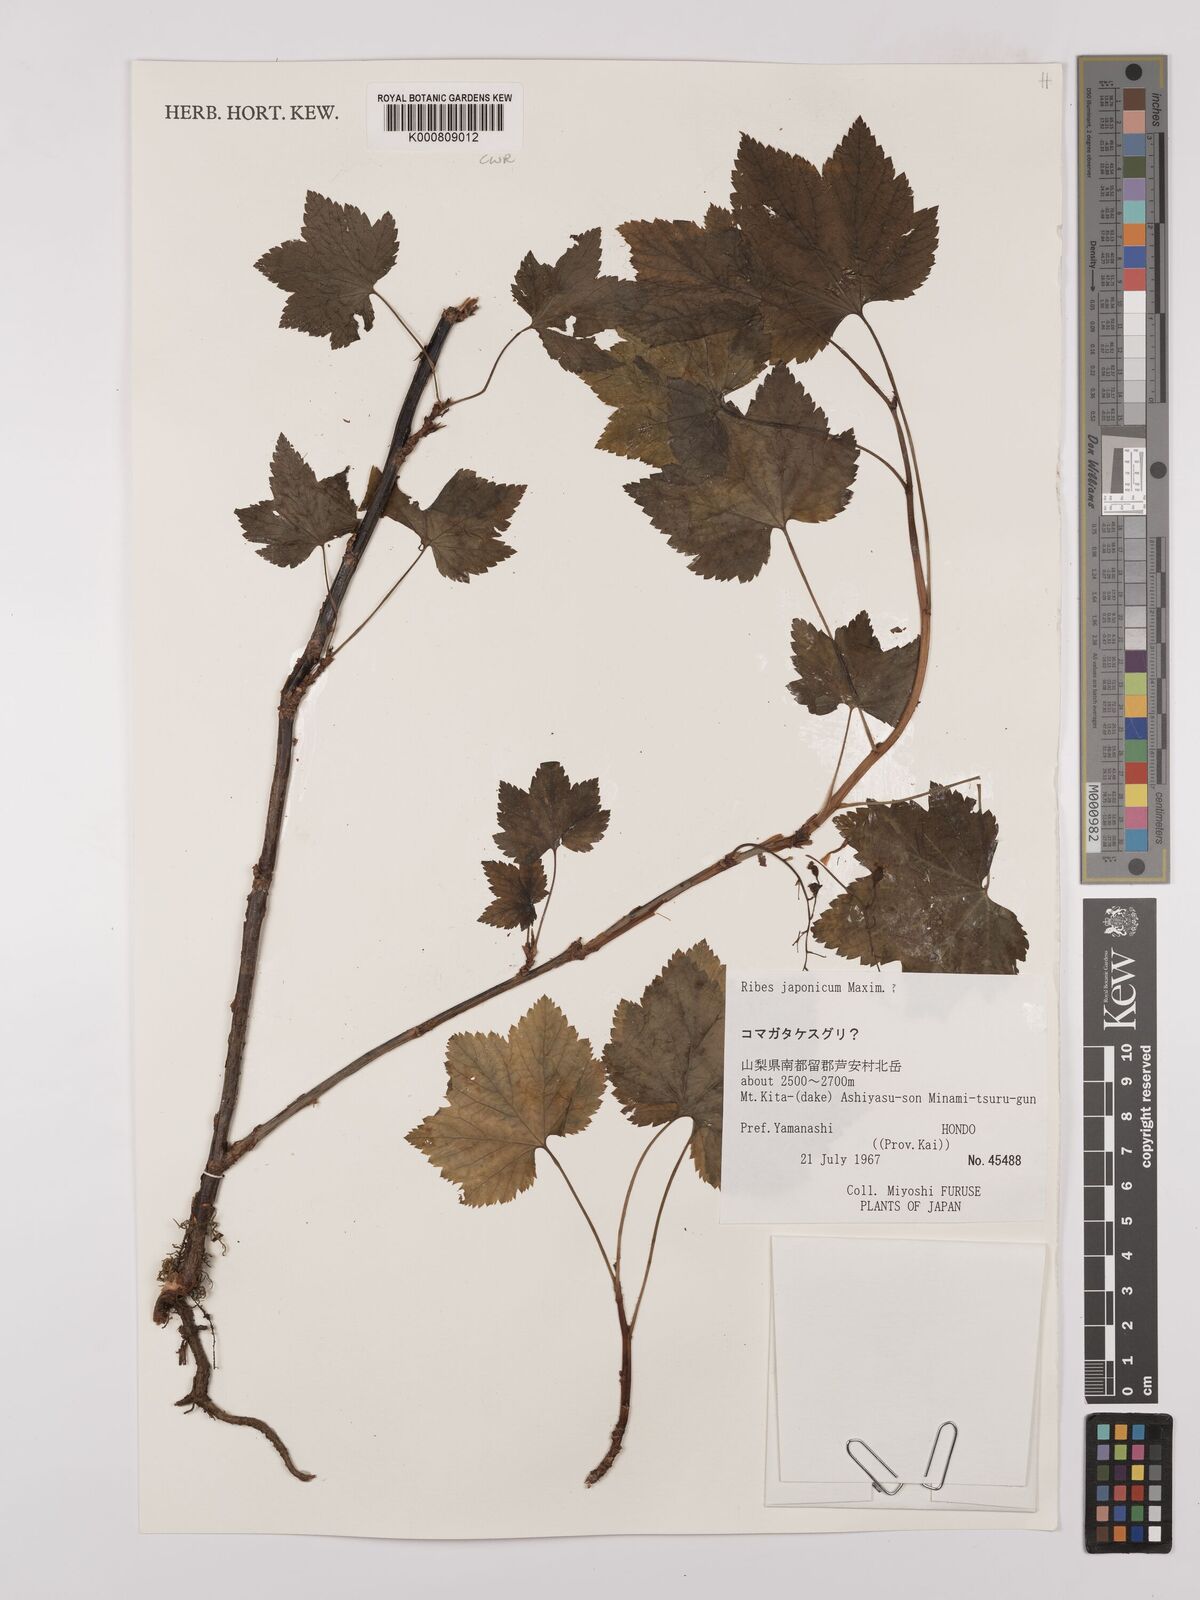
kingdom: Plantae
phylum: Tracheophyta
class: Magnoliopsida
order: Saxifragales
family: Grossulariaceae
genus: Ribes
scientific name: Ribes japonicum
